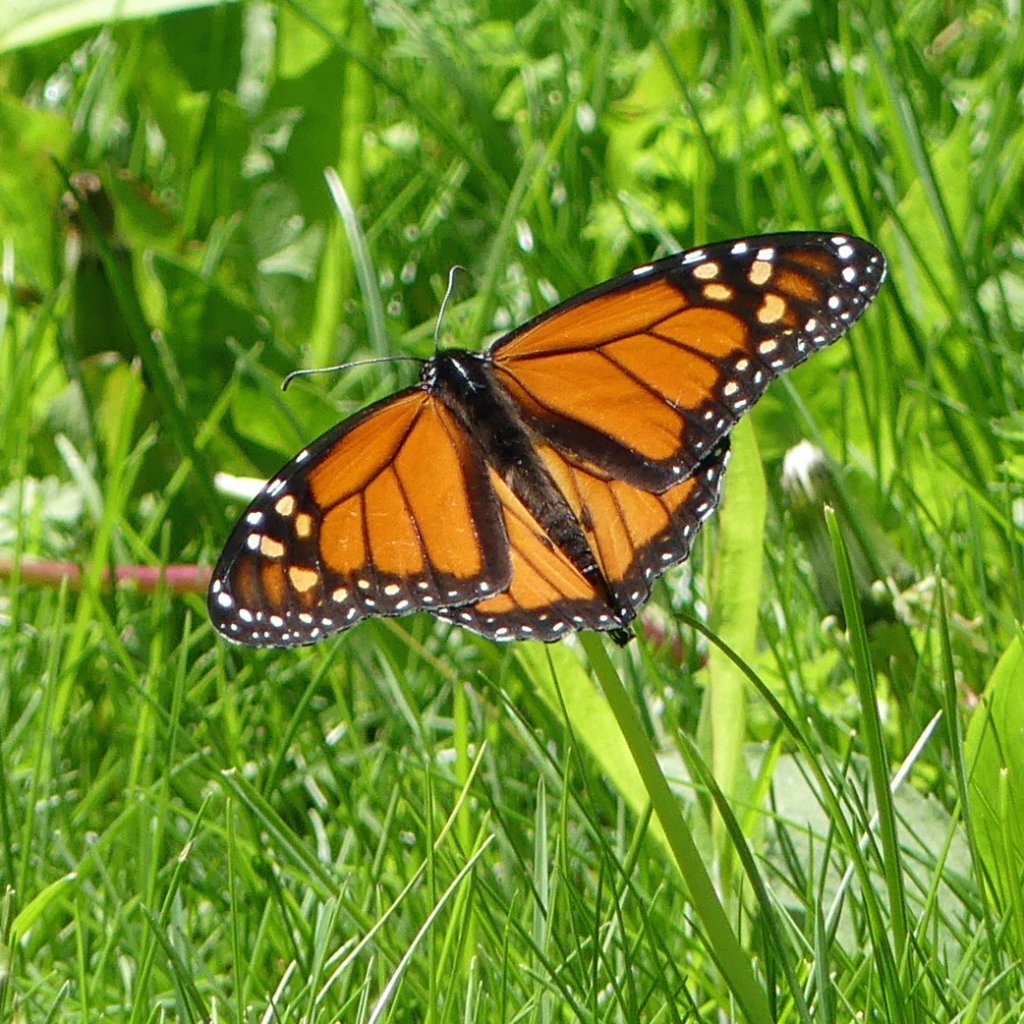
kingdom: Animalia
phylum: Arthropoda
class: Insecta
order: Lepidoptera
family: Nymphalidae
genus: Danaus
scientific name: Danaus plexippus
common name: Monarch
